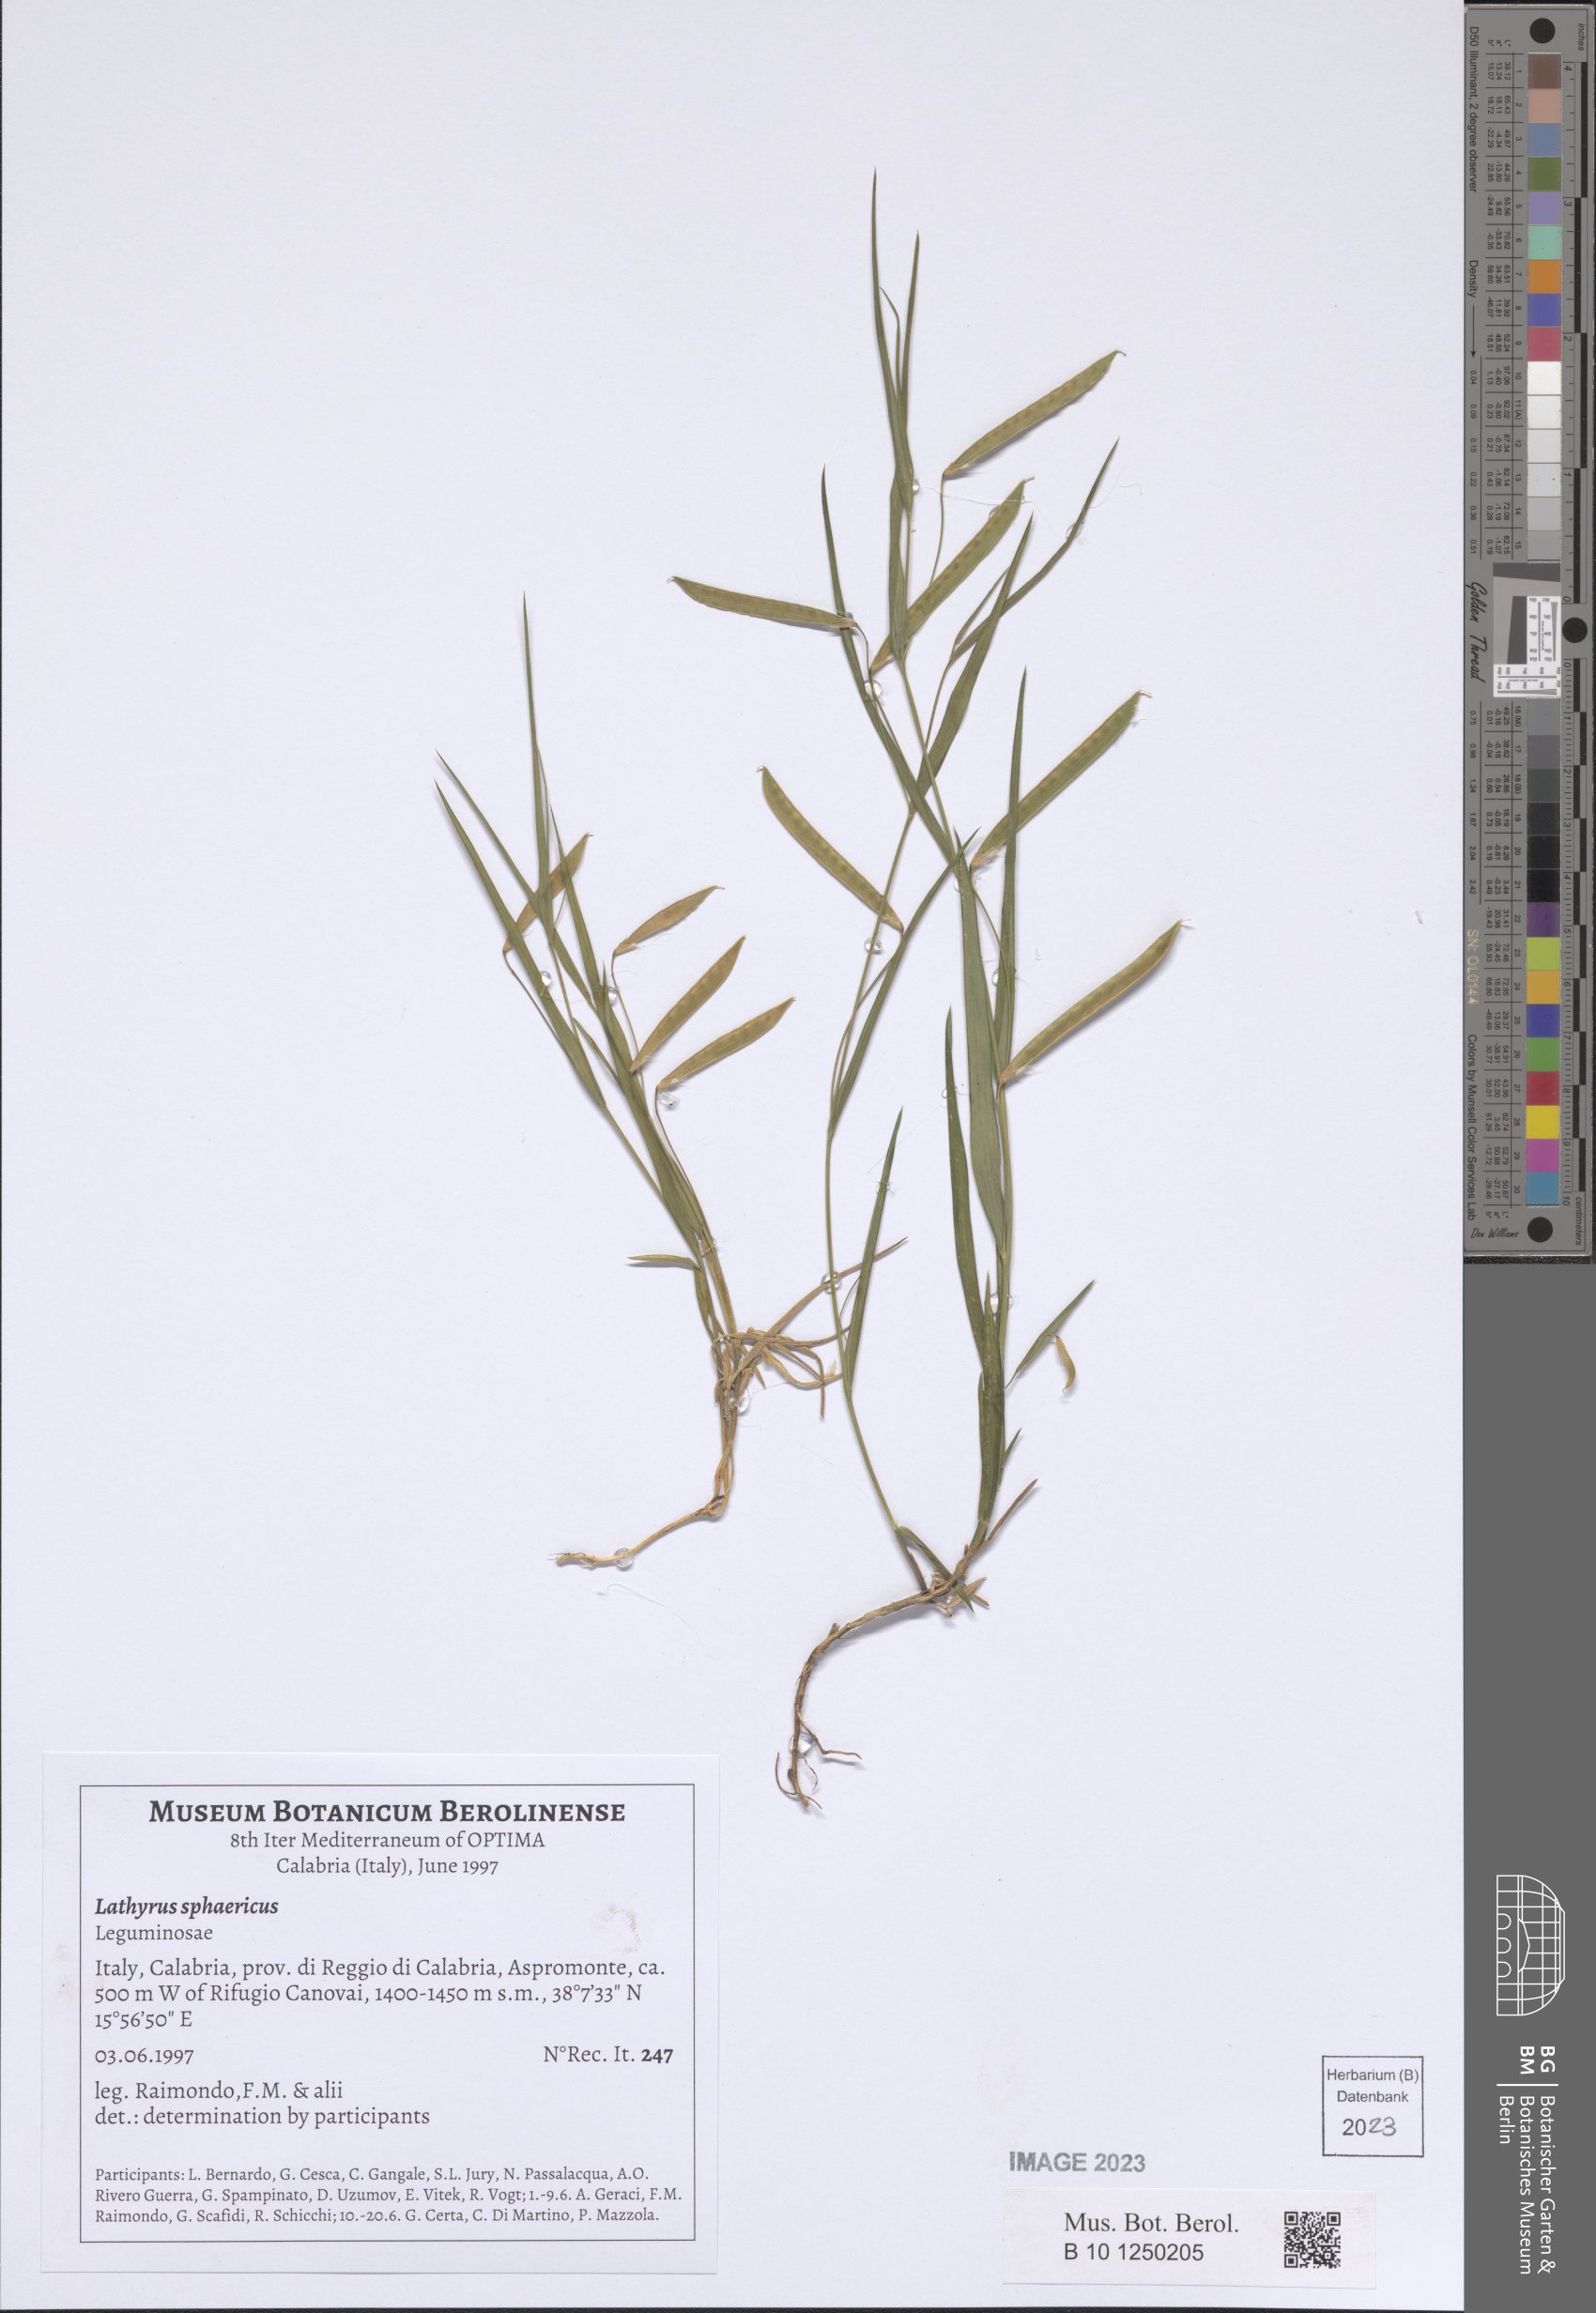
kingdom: Plantae
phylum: Tracheophyta
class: Magnoliopsida
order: Fabales
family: Fabaceae
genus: Lathyrus
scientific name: Lathyrus sphaericus
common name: Grass pea
